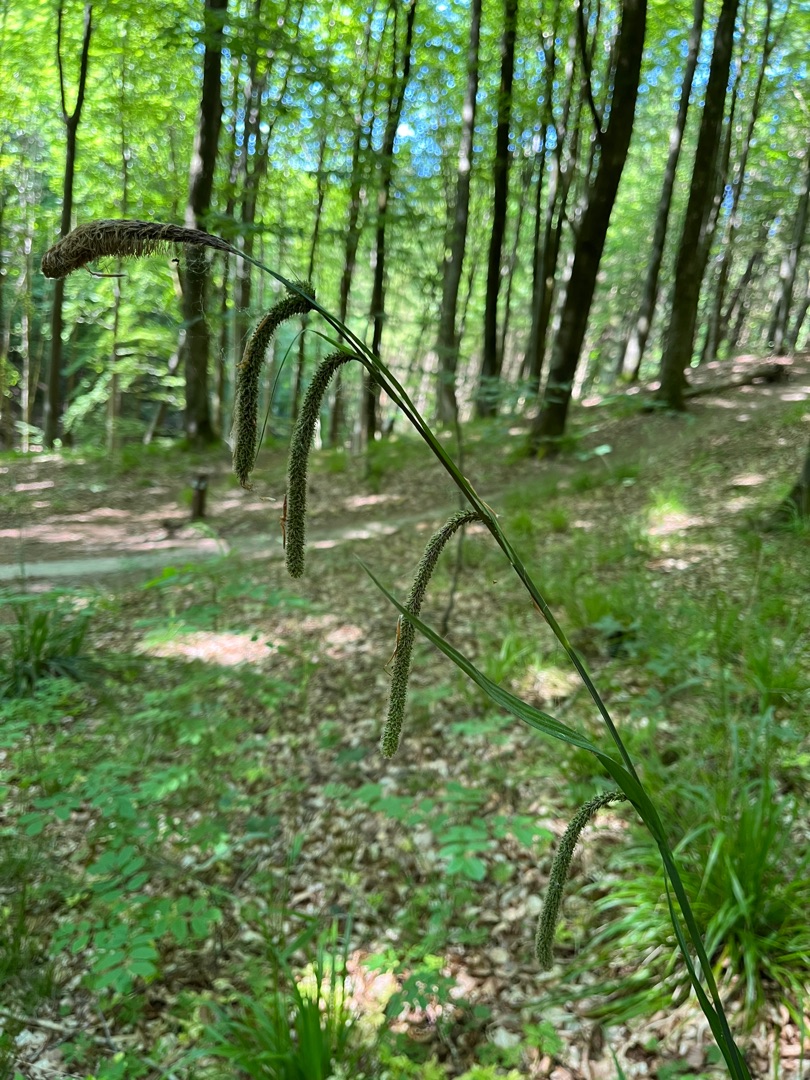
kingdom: Plantae
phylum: Tracheophyta
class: Liliopsida
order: Poales
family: Cyperaceae
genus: Carex
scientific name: Carex pendula
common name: Kæmpe-star
